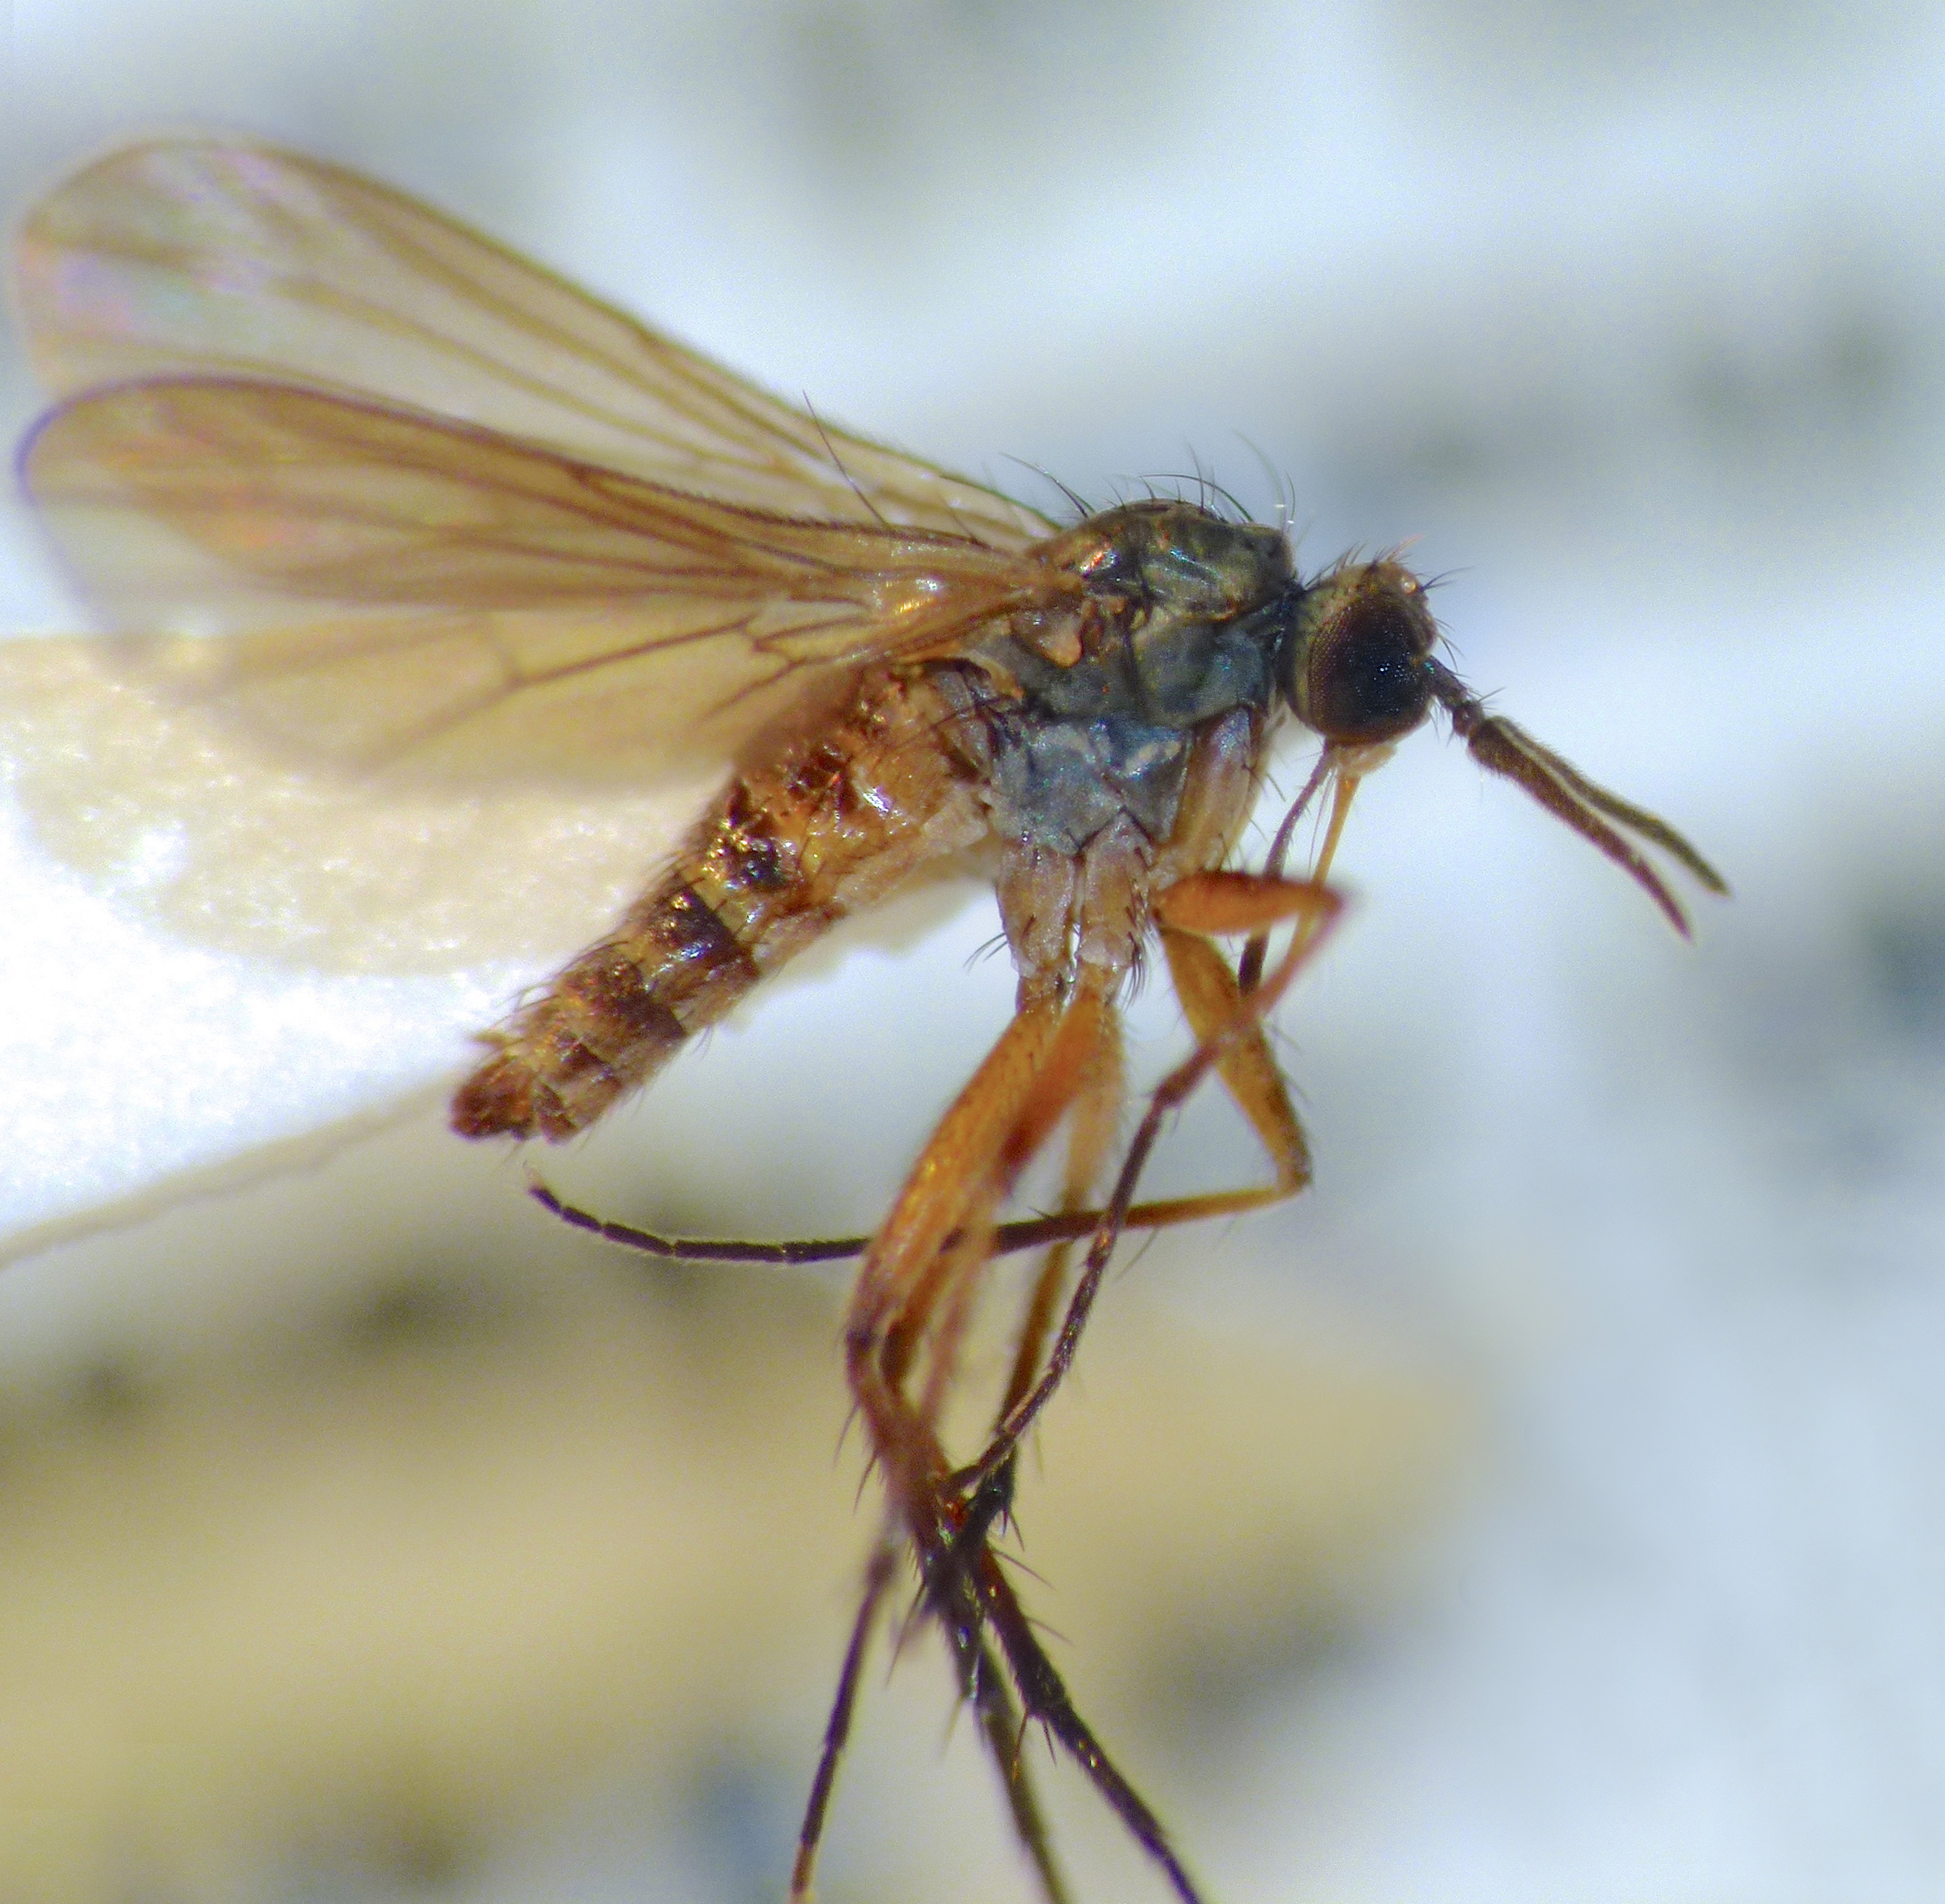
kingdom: Animalia
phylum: Arthropoda
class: Insecta
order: Diptera
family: Empididae
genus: Empidadelpha
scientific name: Empidadelpha propria
